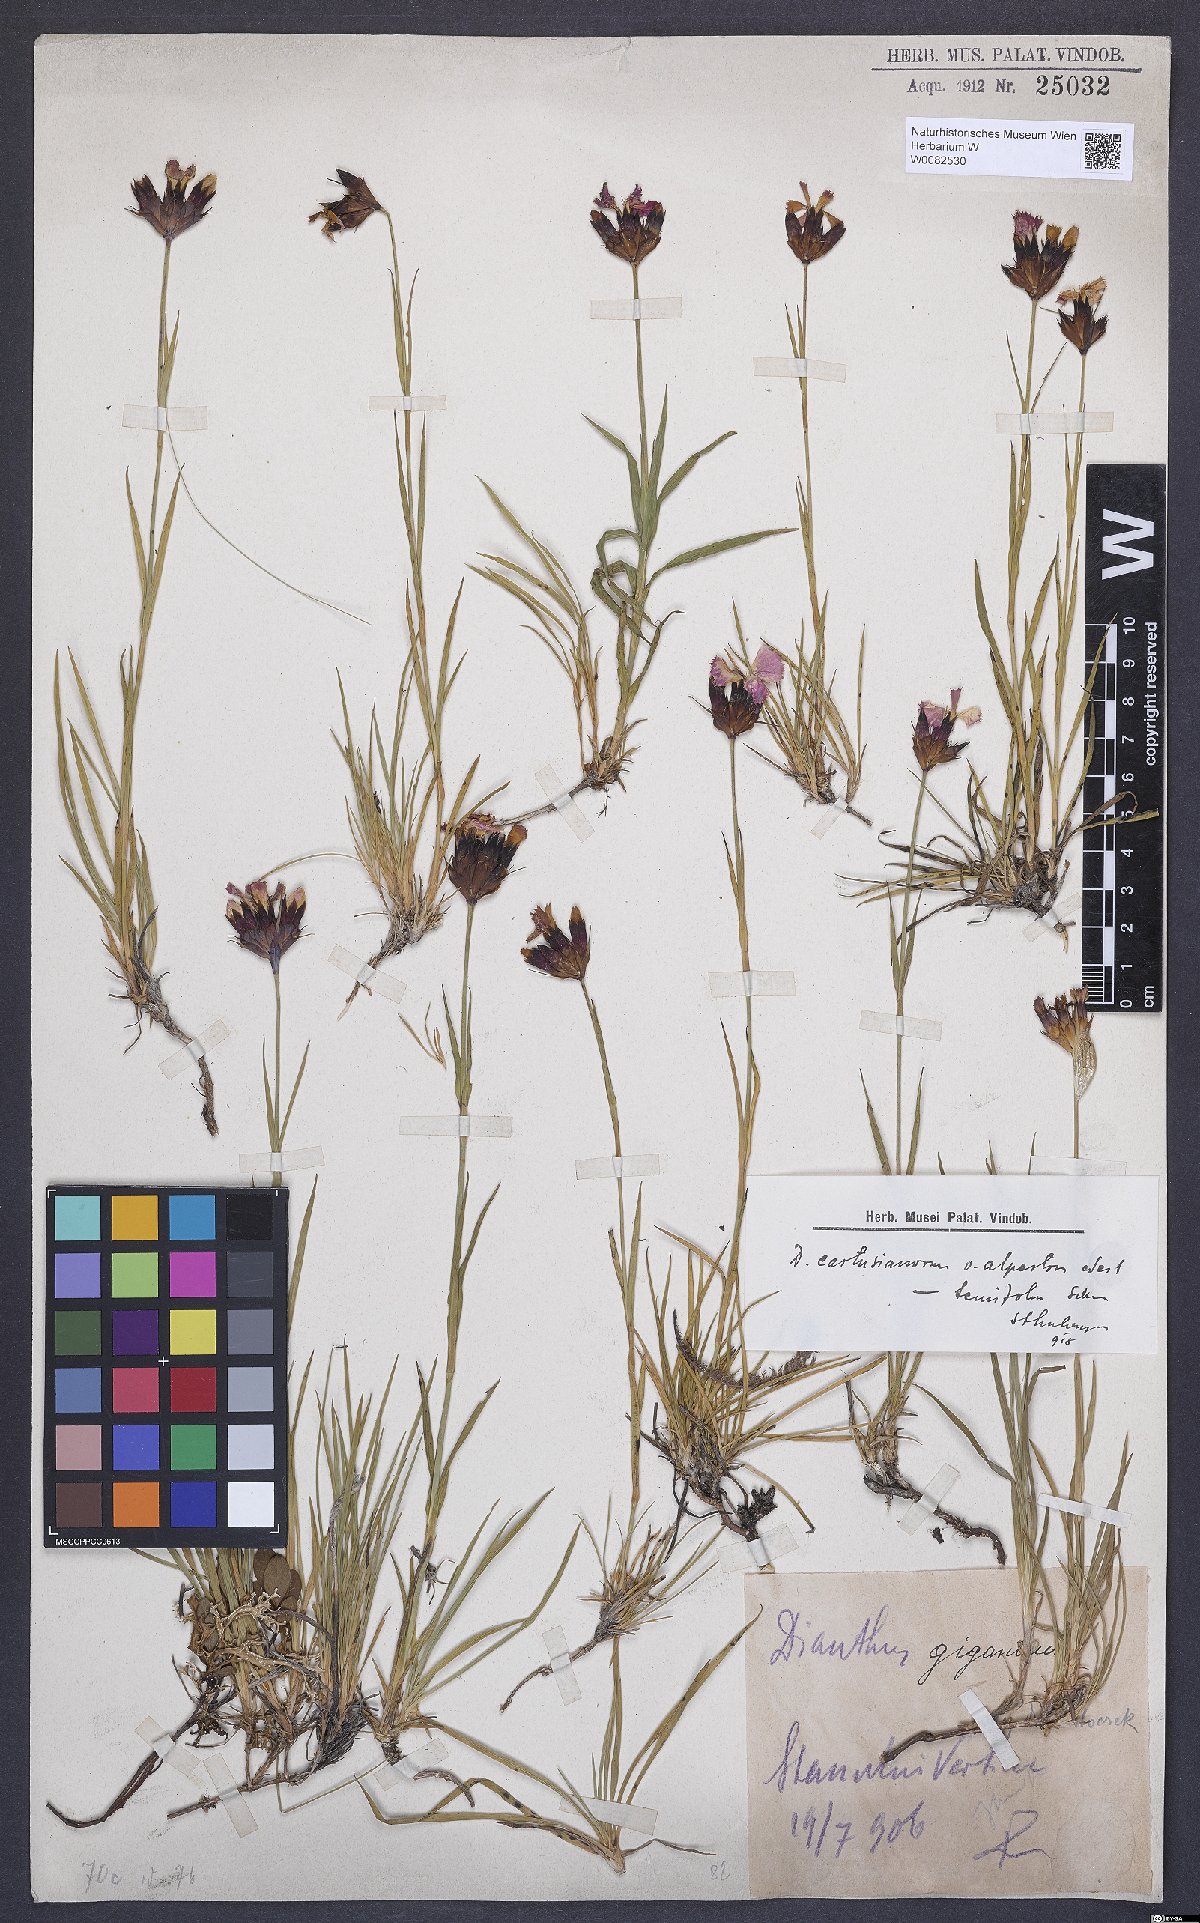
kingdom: Plantae
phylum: Tracheophyta
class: Magnoliopsida
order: Caryophyllales
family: Caryophyllaceae
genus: Dianthus
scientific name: Dianthus carthusianorum
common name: Carthusian pink
